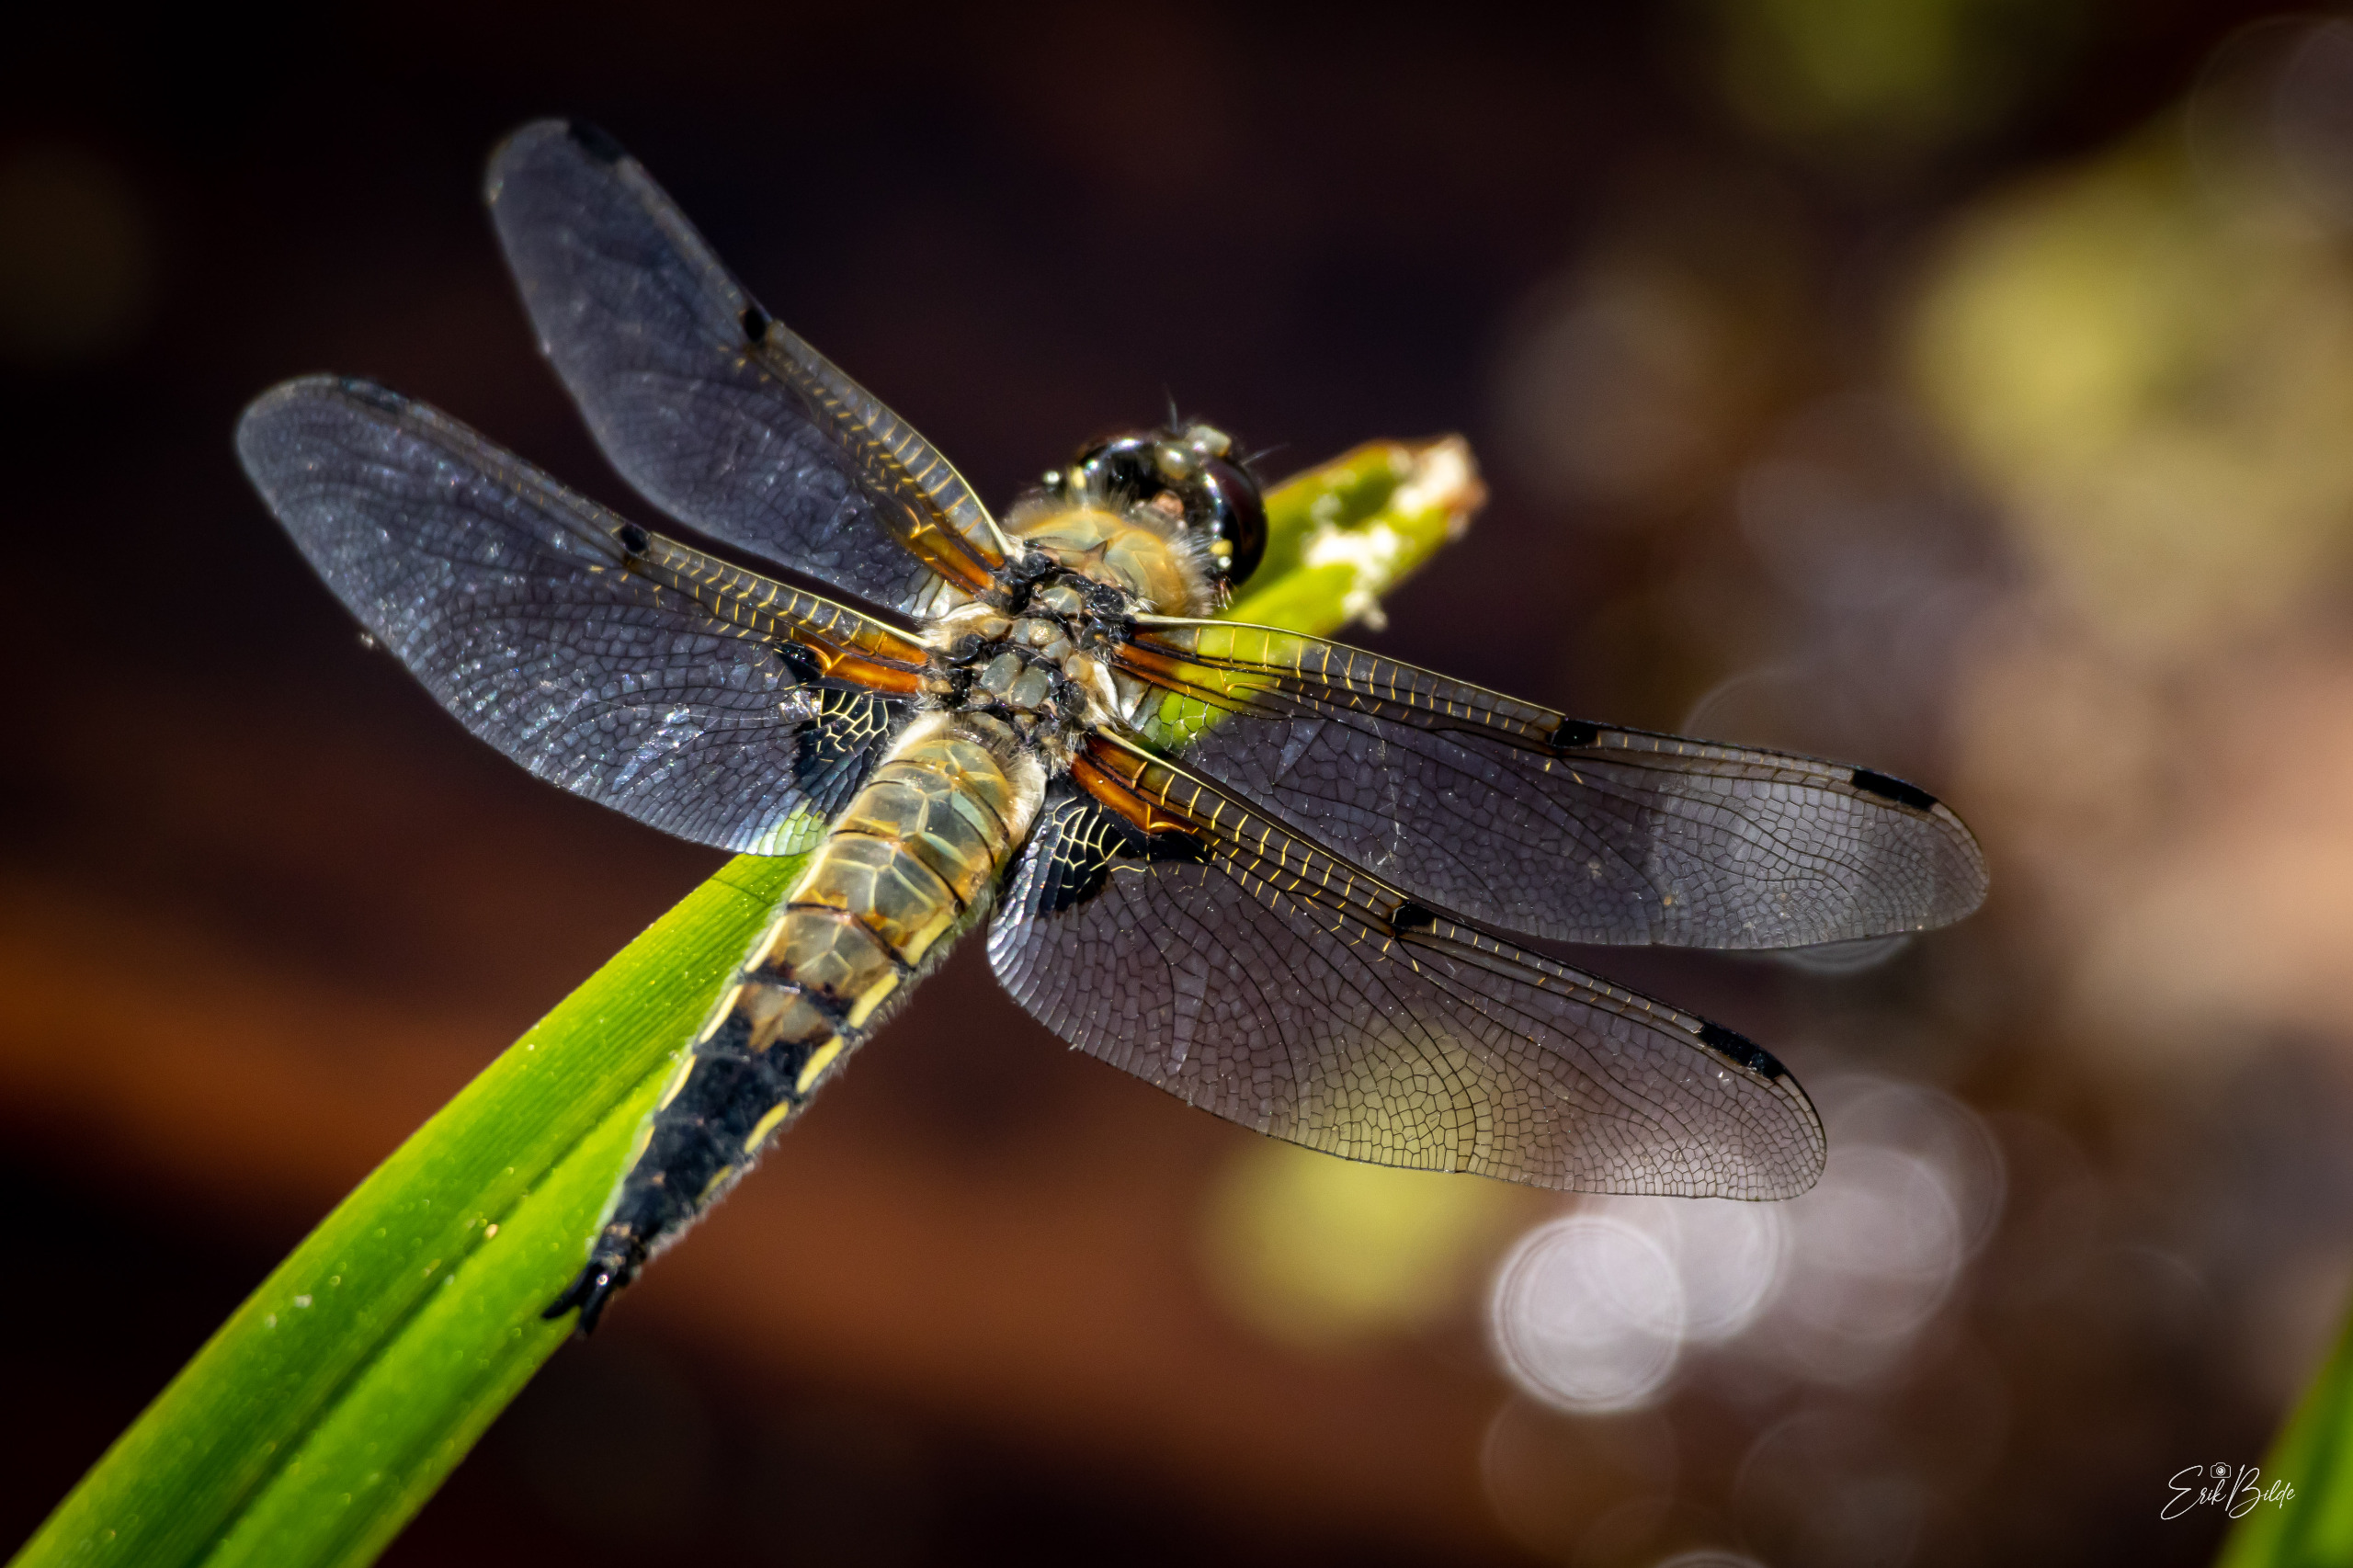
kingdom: Animalia
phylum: Arthropoda
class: Insecta
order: Odonata
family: Libellulidae
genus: Libellula
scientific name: Libellula quadrimaculata
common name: Fireplettet libel
